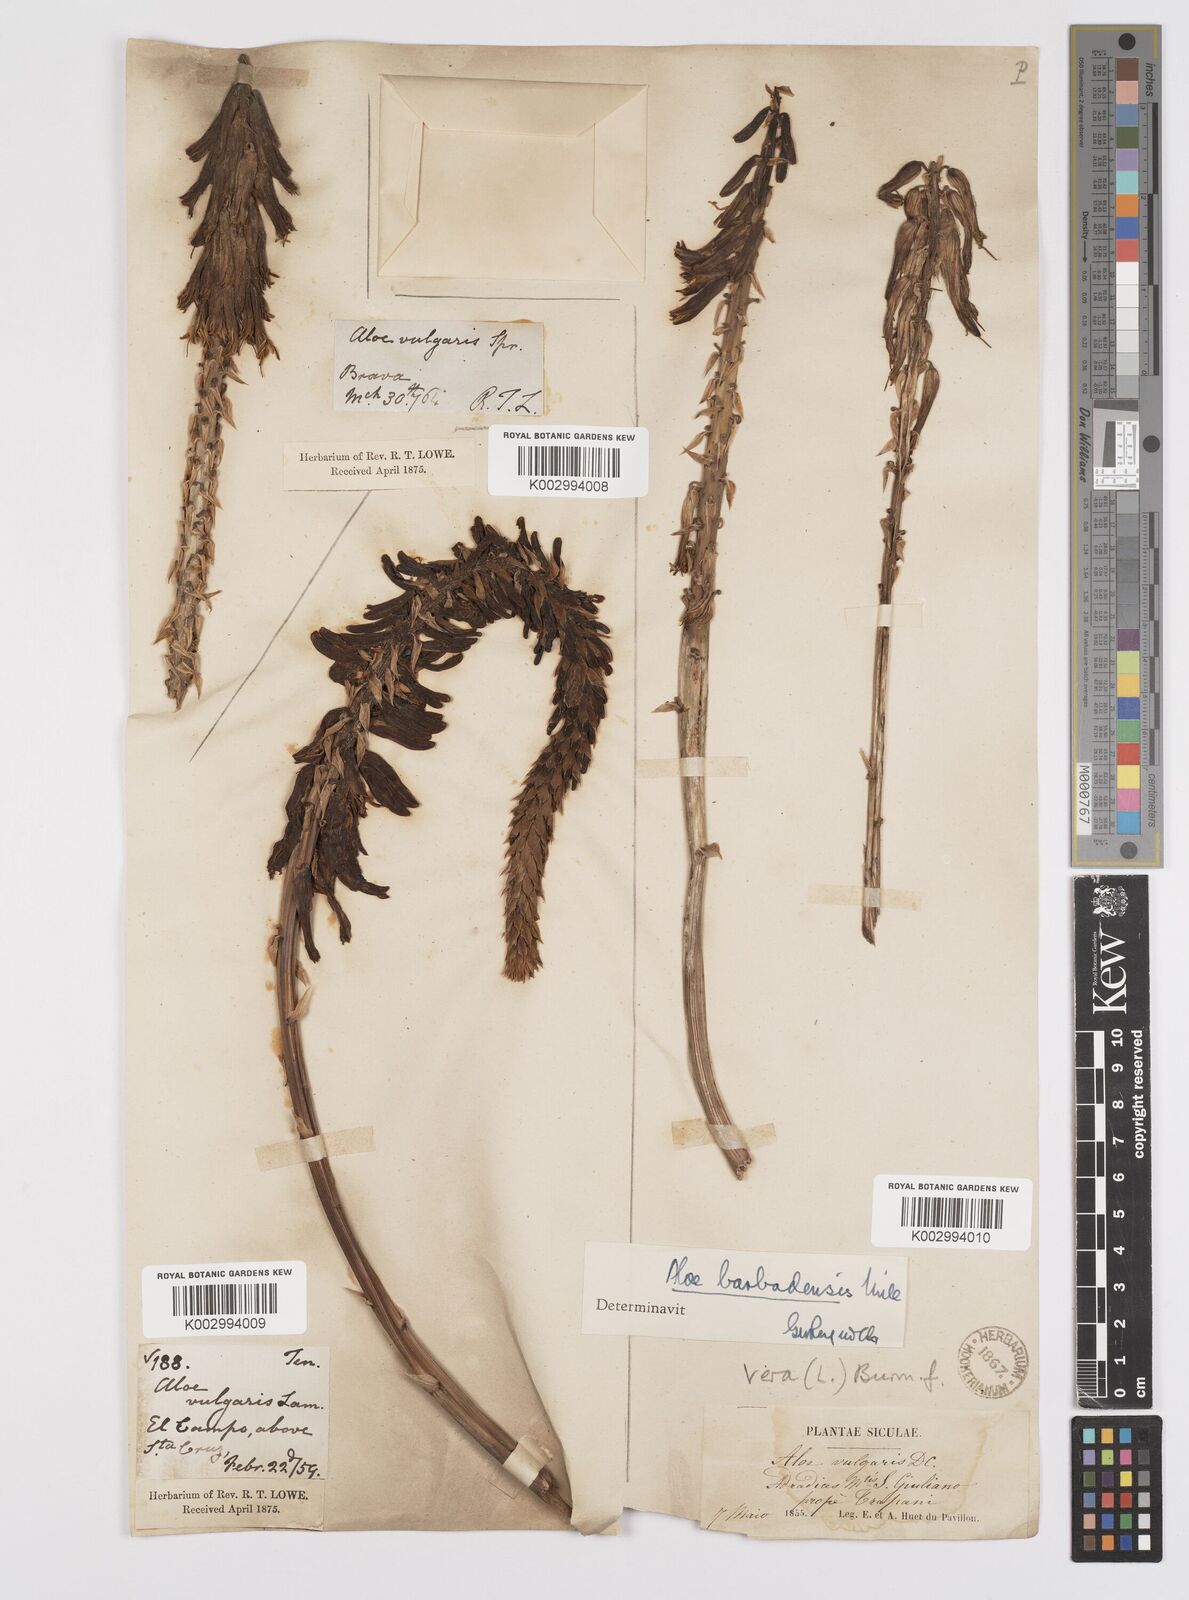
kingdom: Plantae
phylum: Tracheophyta
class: Liliopsida
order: Asparagales
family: Asphodelaceae
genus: Aloe
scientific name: Aloe vera
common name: Barbados aloe
